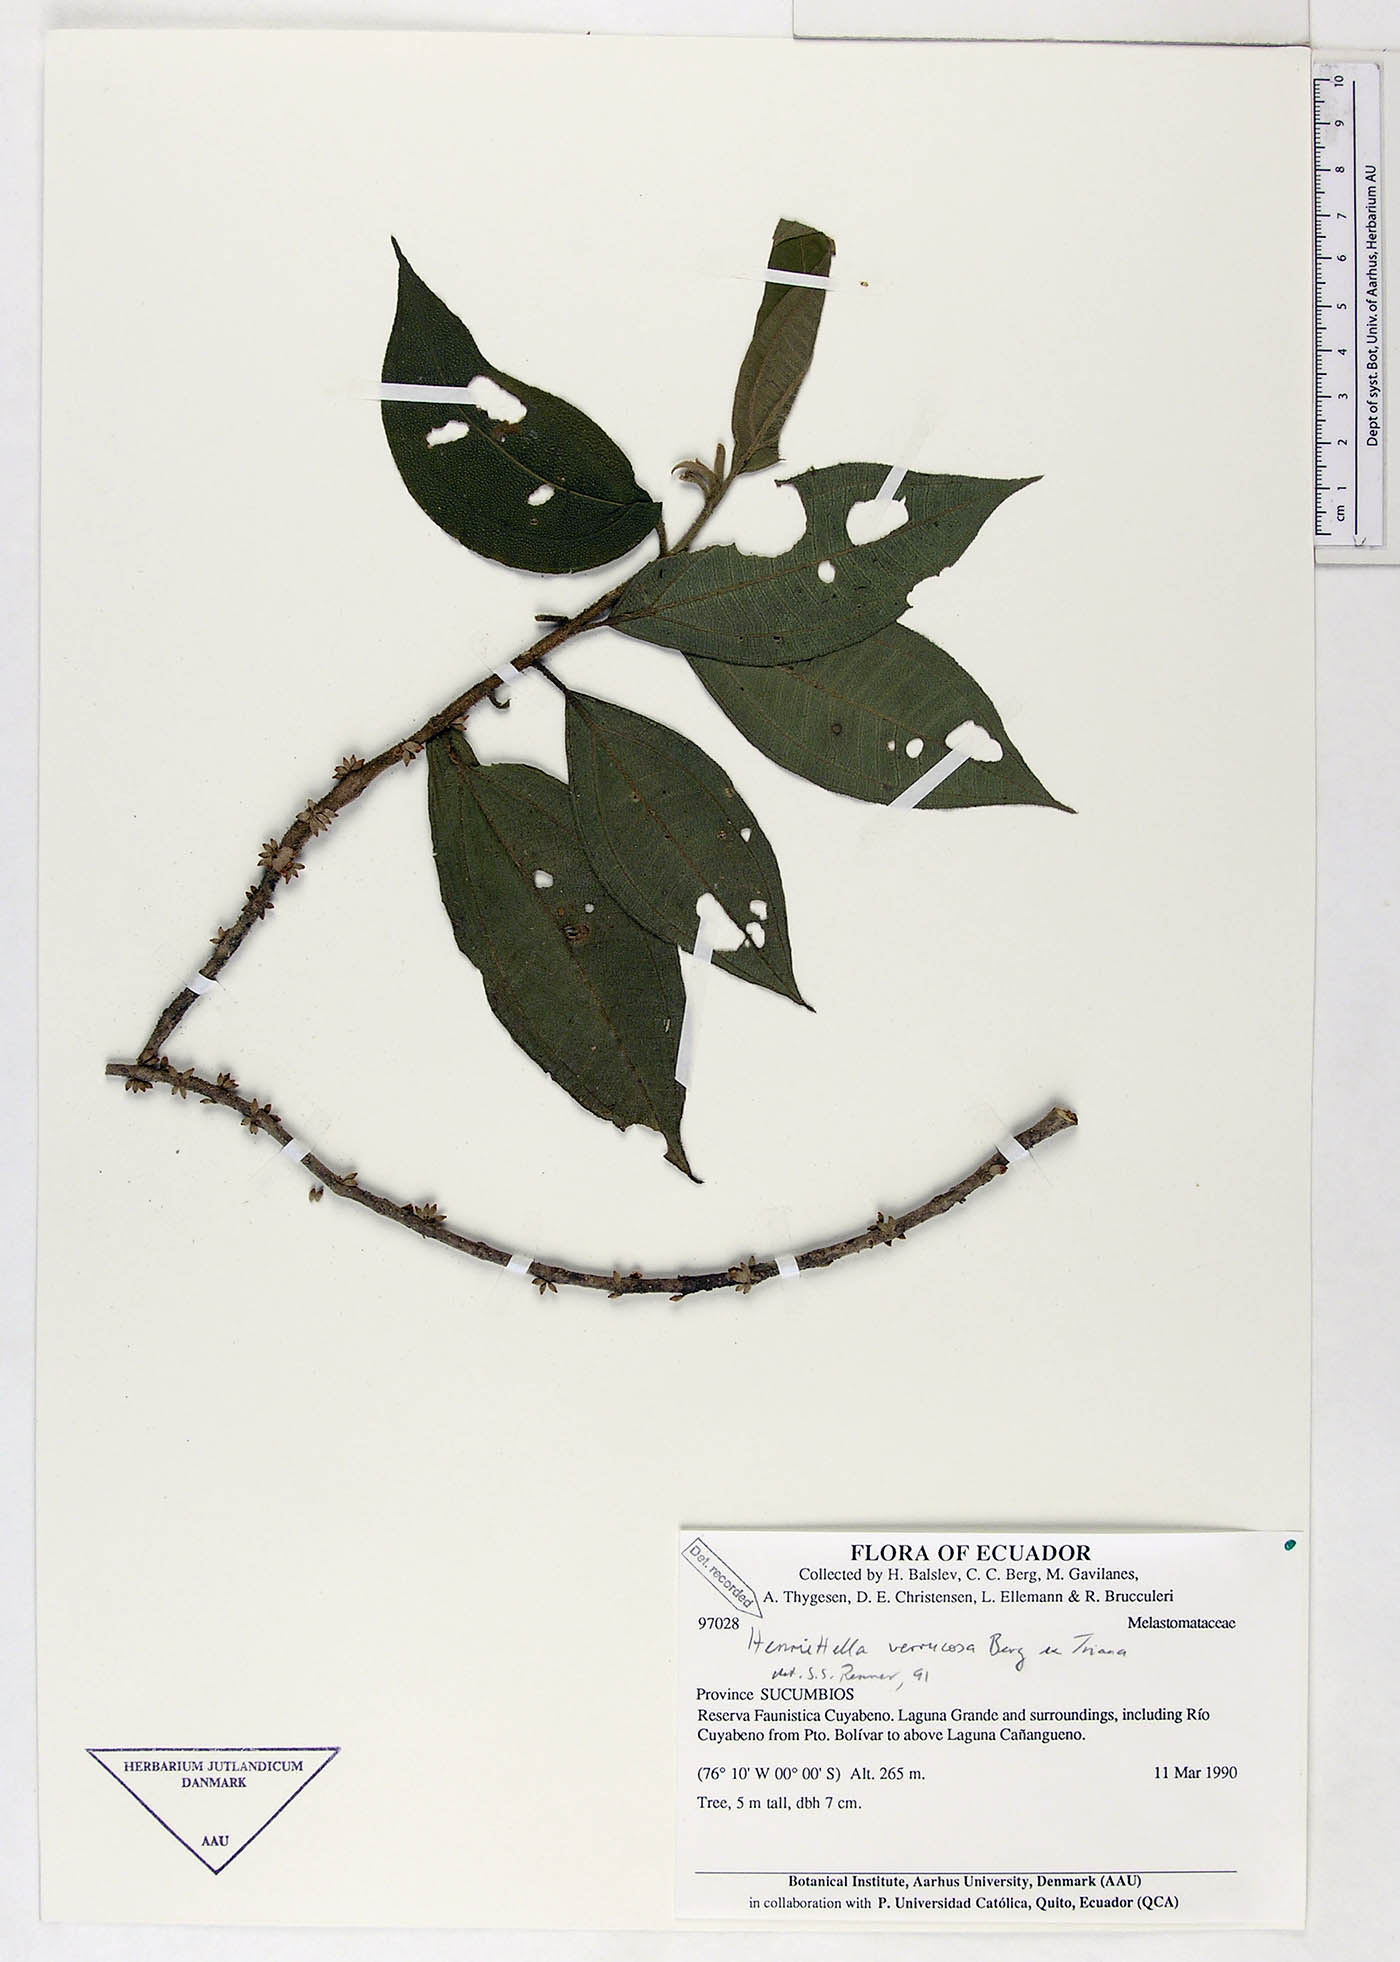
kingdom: Plantae
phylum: Tracheophyta
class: Magnoliopsida
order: Myrtales
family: Melastomataceae
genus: Henriettea
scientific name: Henriettea verrucosa
